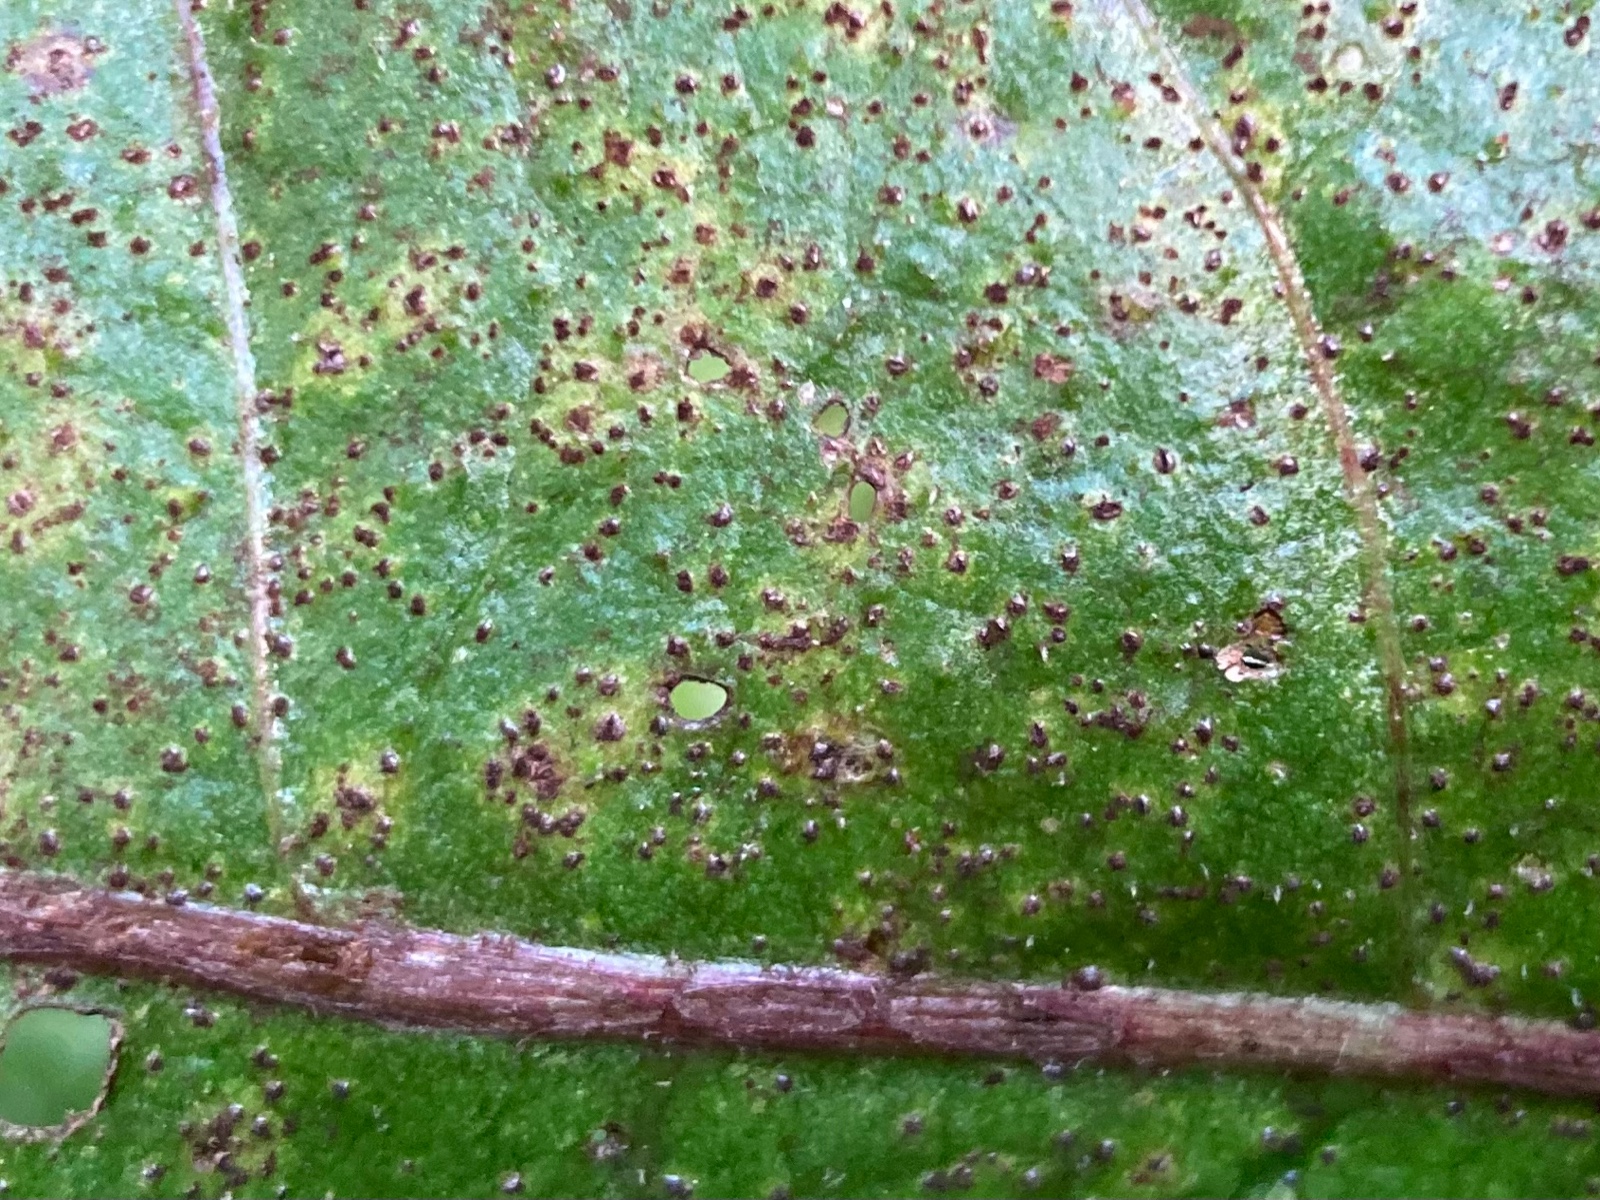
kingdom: Fungi
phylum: Basidiomycota
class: Pucciniomycetes
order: Pucciniales
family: Pucciniaceae
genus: Puccinia
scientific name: Puccinia hieracii
